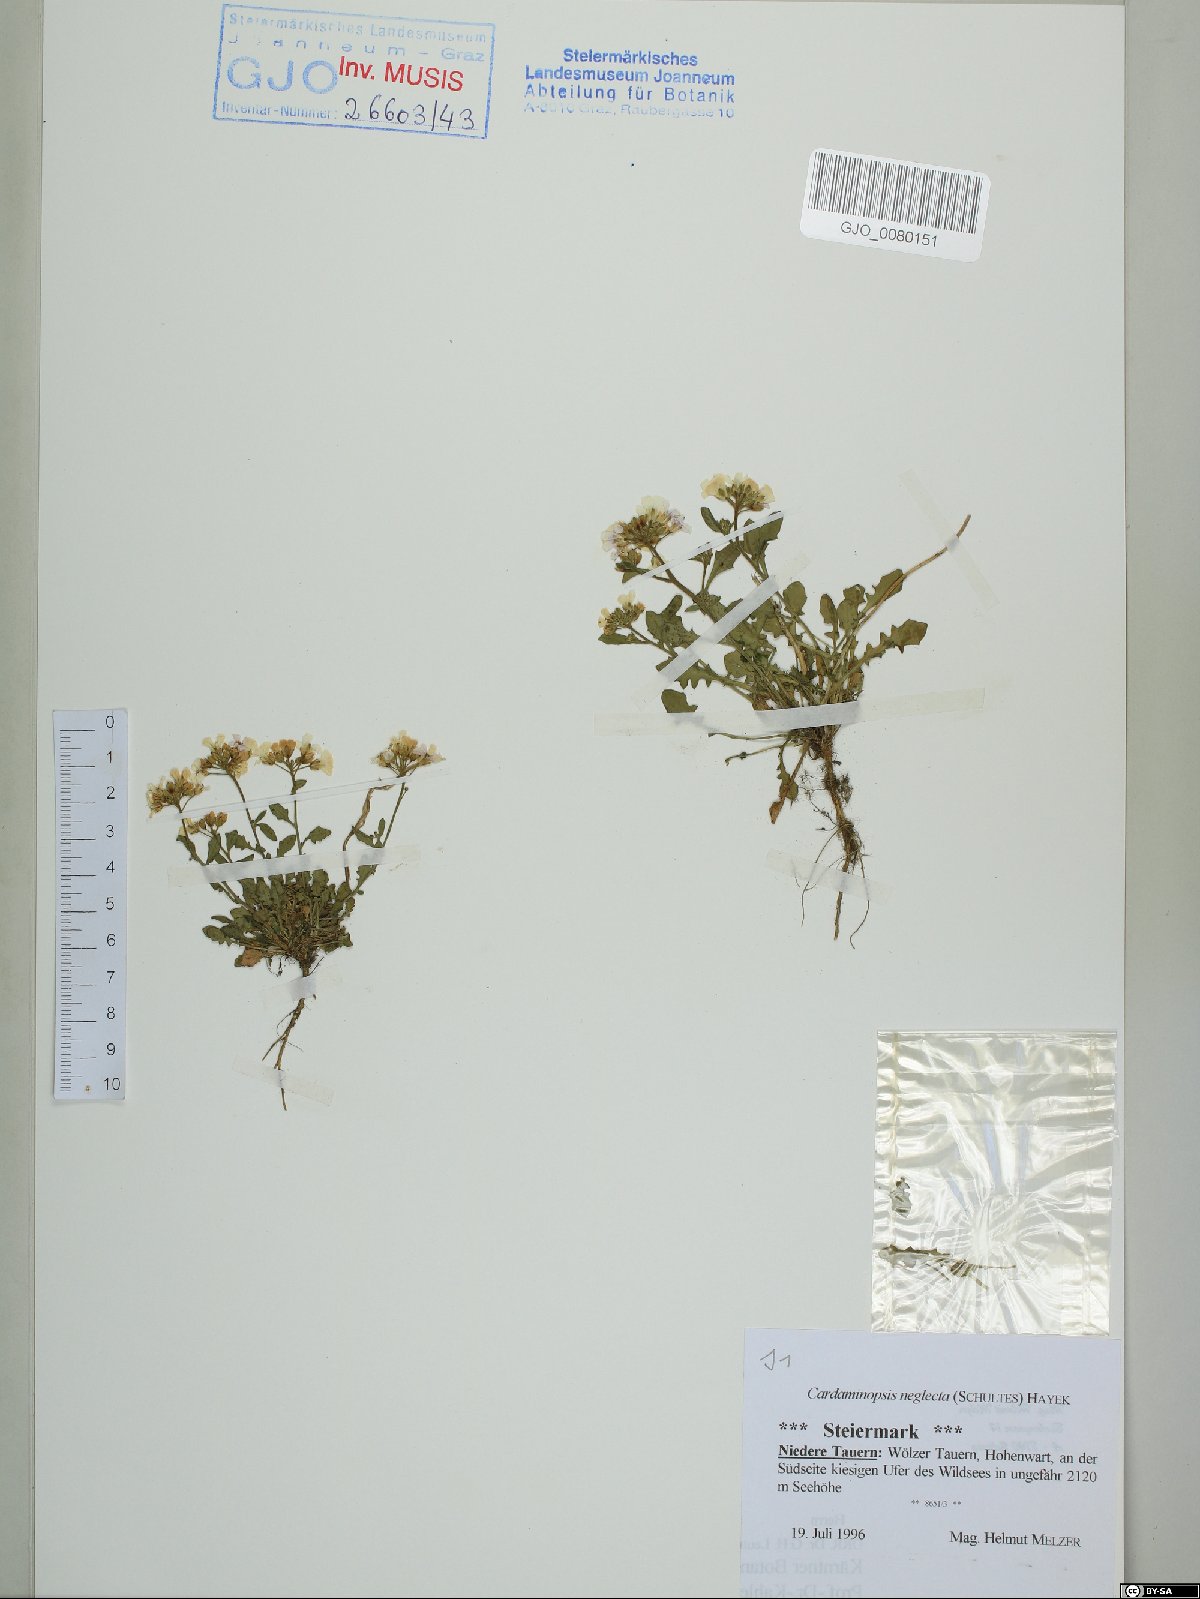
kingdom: Plantae
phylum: Tracheophyta
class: Magnoliopsida
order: Brassicales
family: Brassicaceae
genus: Arabidopsis
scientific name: Arabidopsis neglecta
